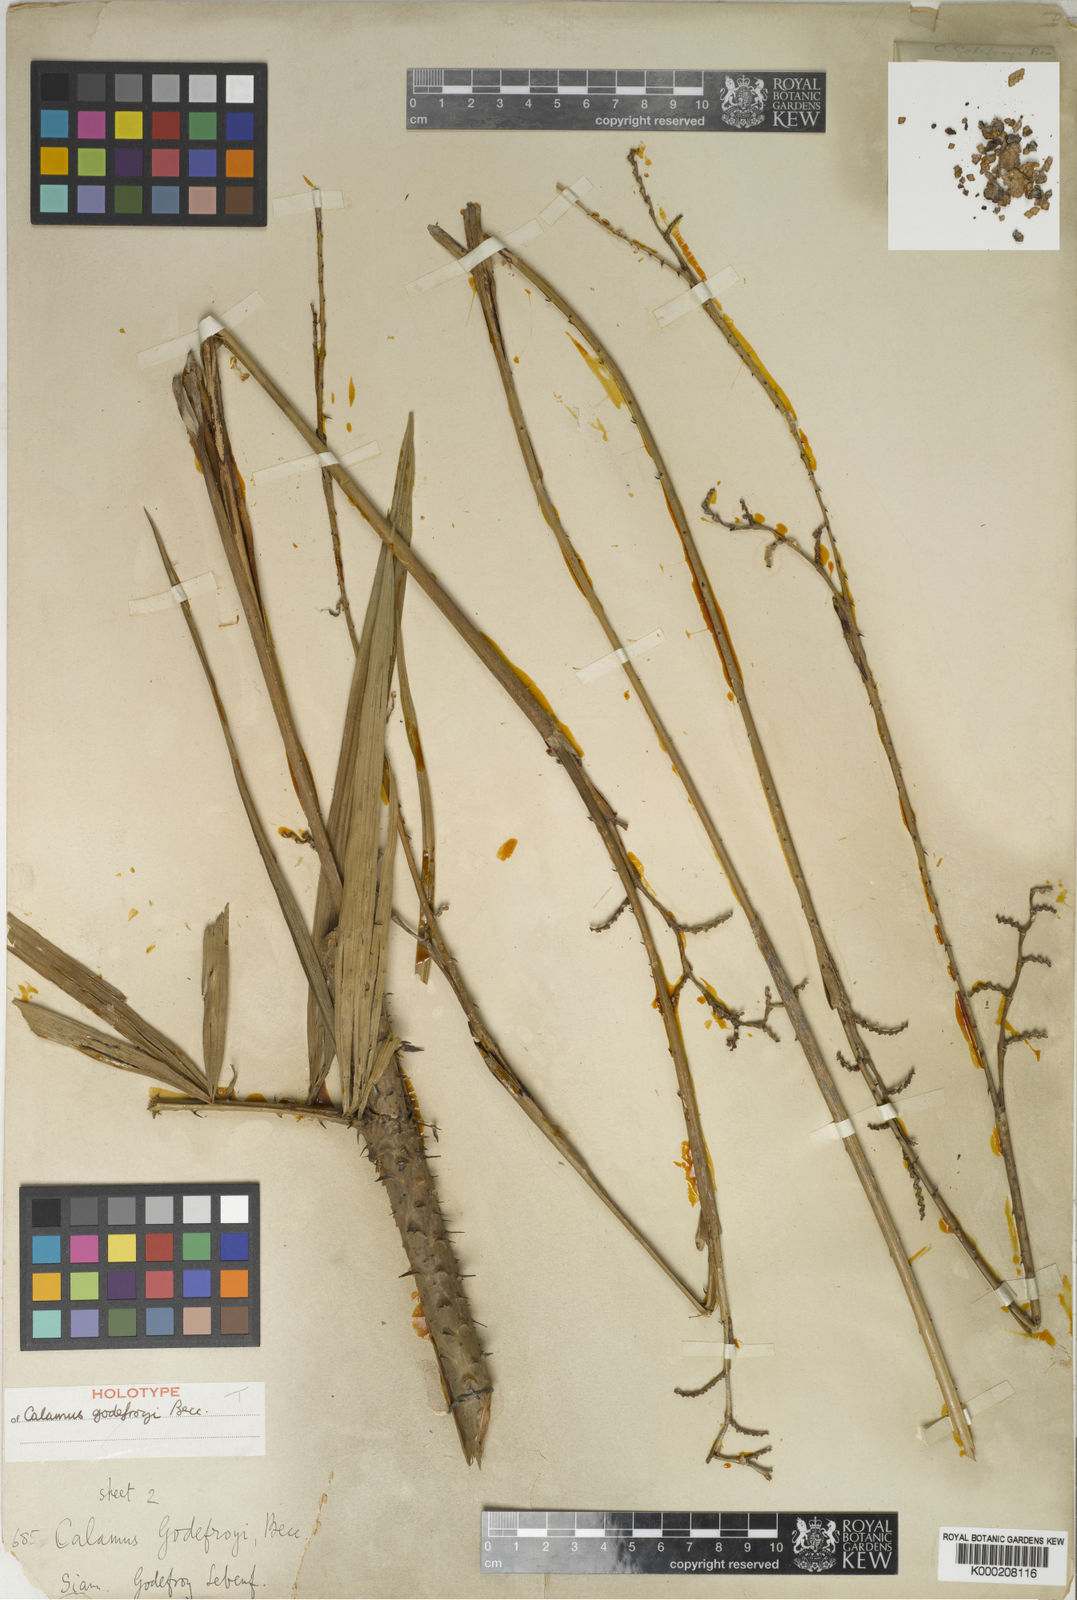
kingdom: Plantae
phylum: Tracheophyta
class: Liliopsida
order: Arecales
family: Arecaceae
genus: Calamus
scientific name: Calamus godefroyi
